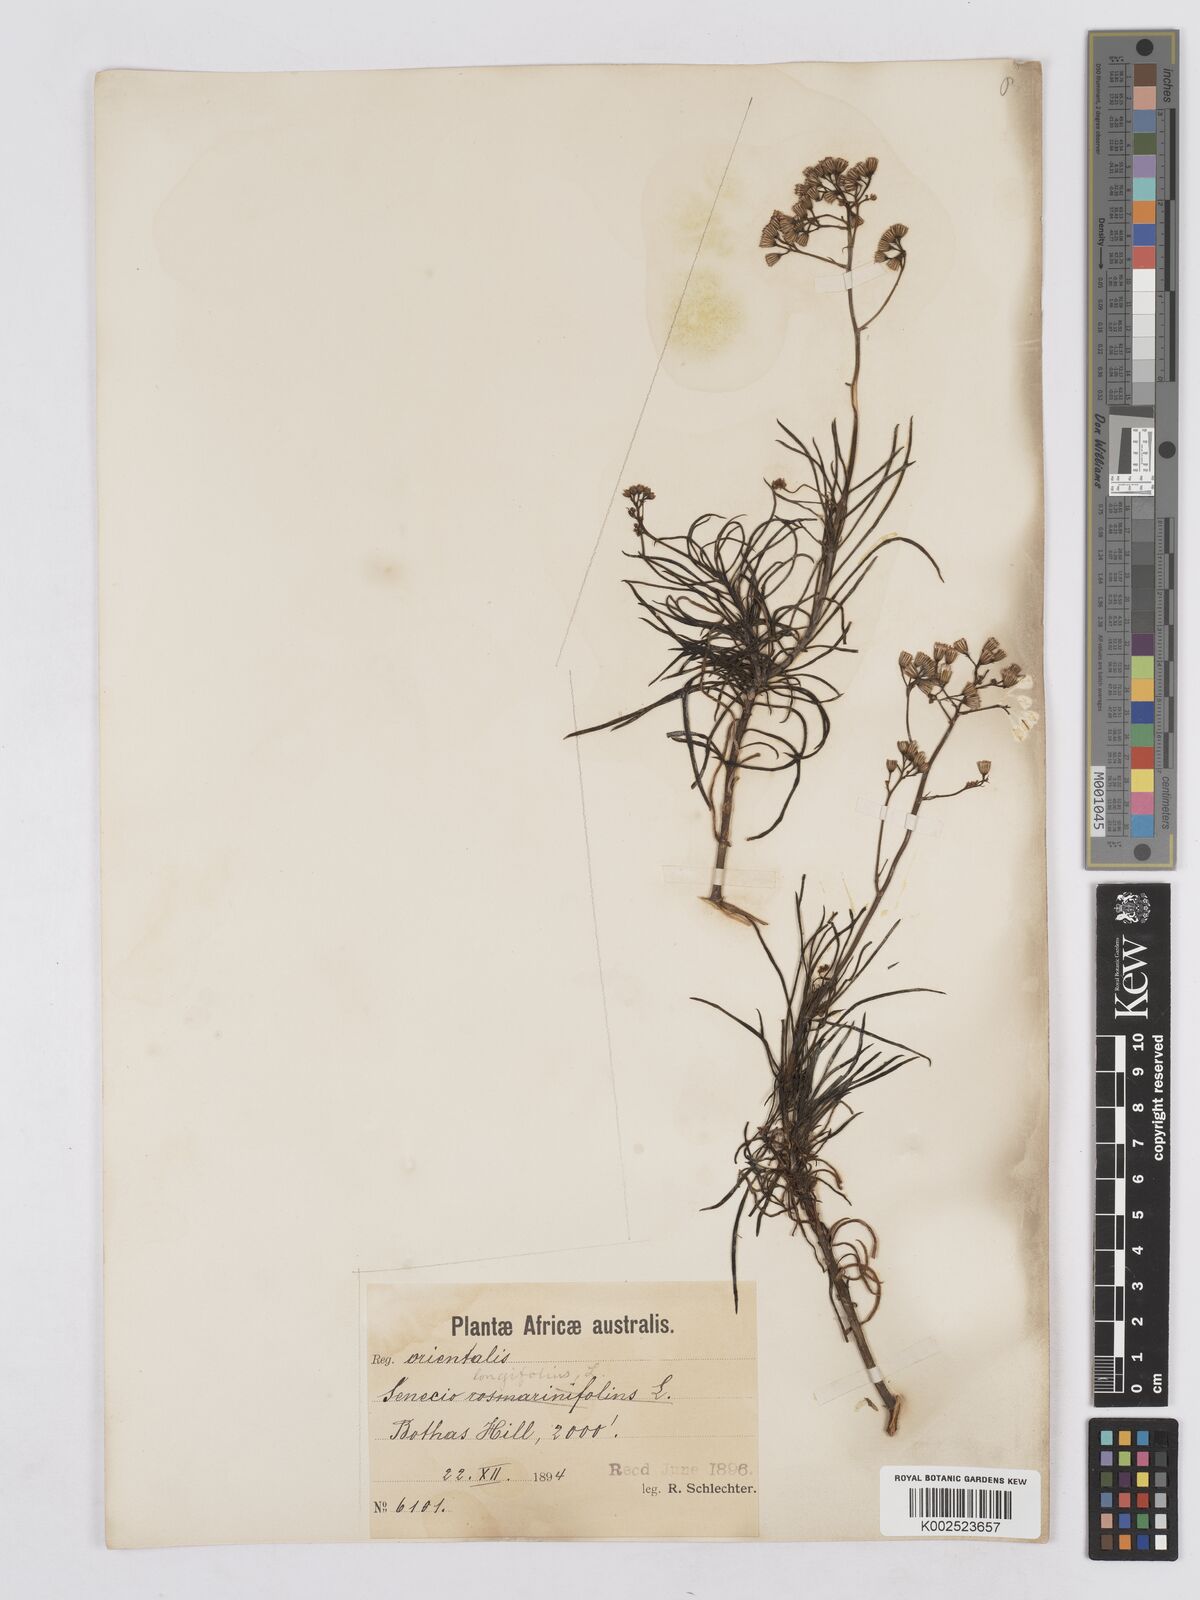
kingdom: Plantae
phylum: Tracheophyta
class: Magnoliopsida
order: Asterales
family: Asteraceae
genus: Senecio
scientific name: Senecio linifolius
